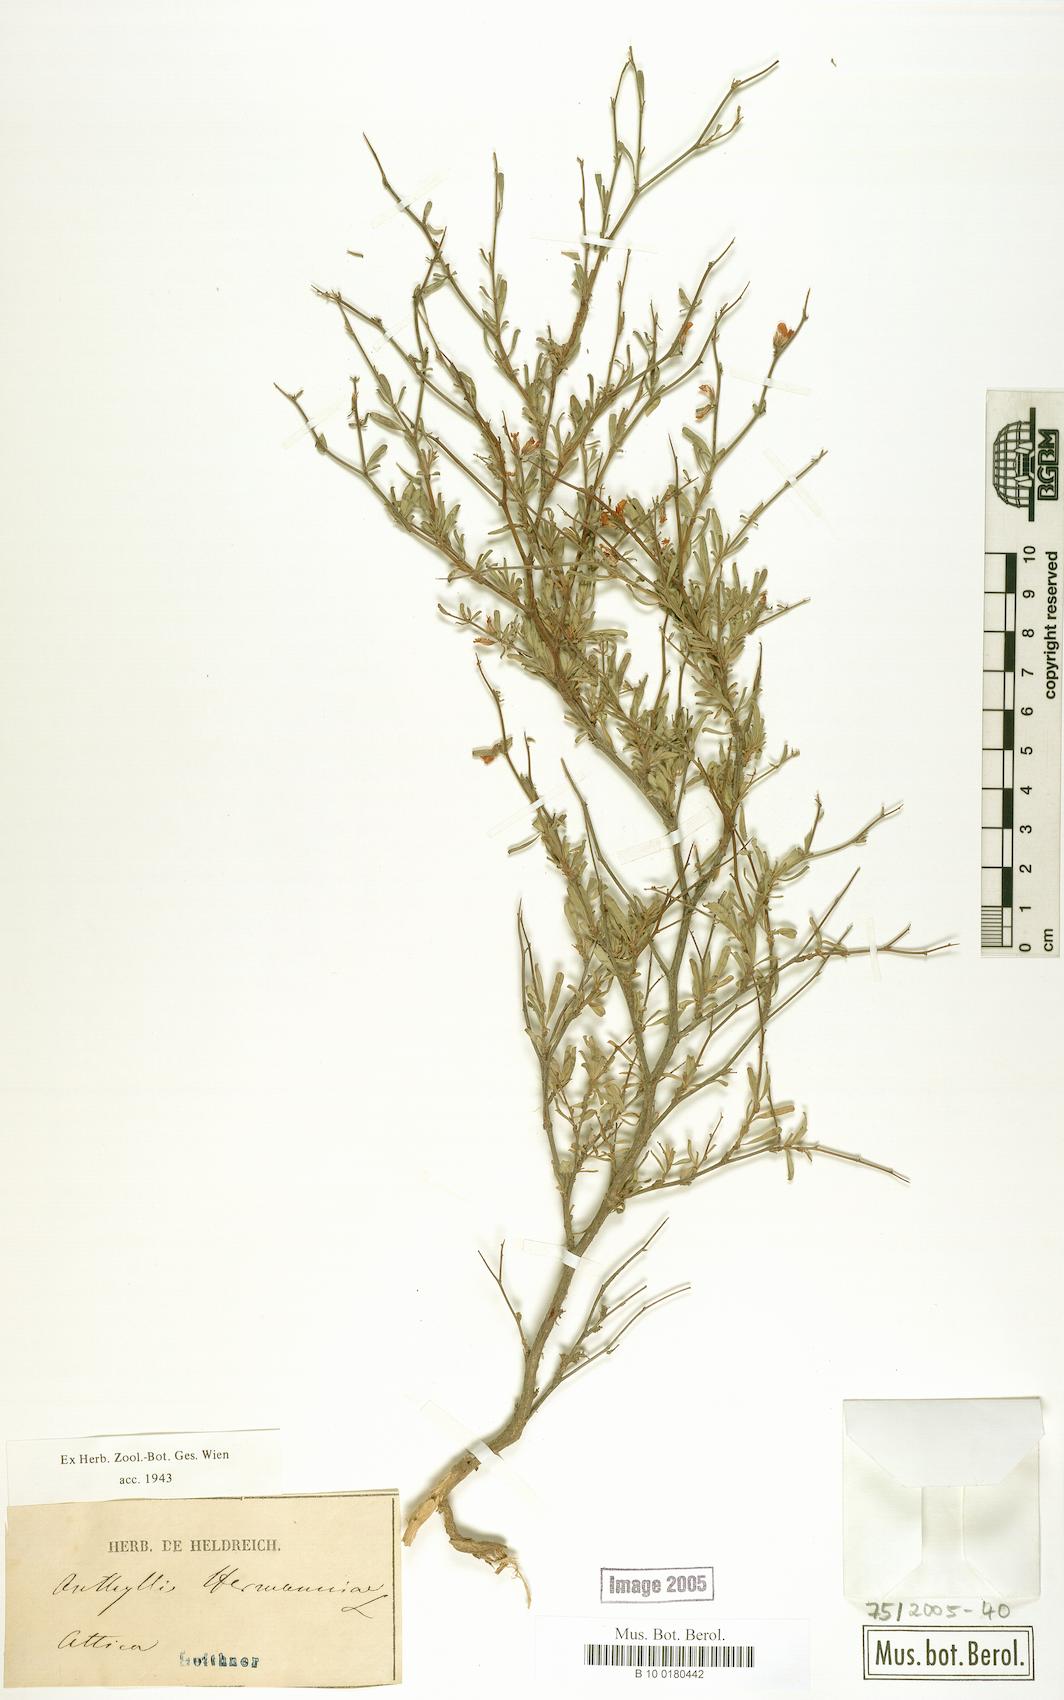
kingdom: Plantae
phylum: Tracheophyta
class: Magnoliopsida
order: Fabales
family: Fabaceae
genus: Anthyllis
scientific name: Anthyllis hermanniae
